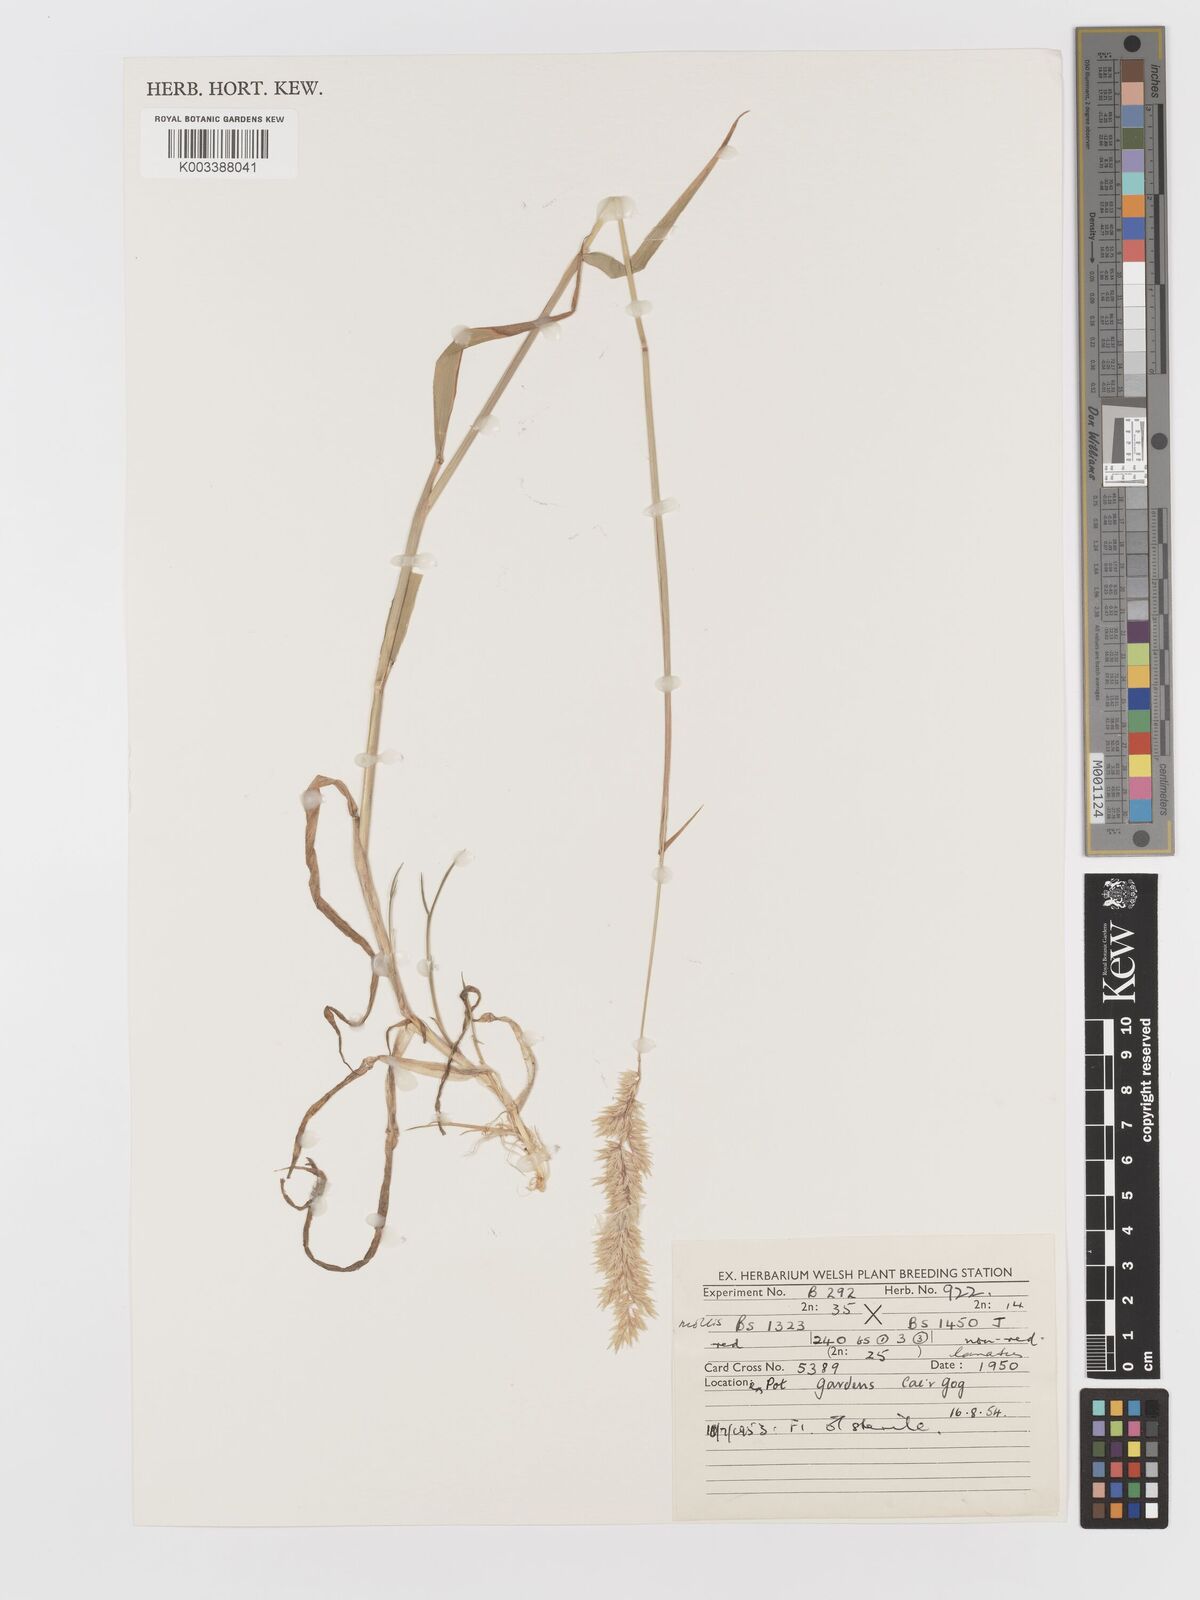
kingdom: Plantae
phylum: Tracheophyta
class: Liliopsida
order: Poales
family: Poaceae
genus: Holcus
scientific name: Holcus lanatus
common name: Yorkshire-fog
